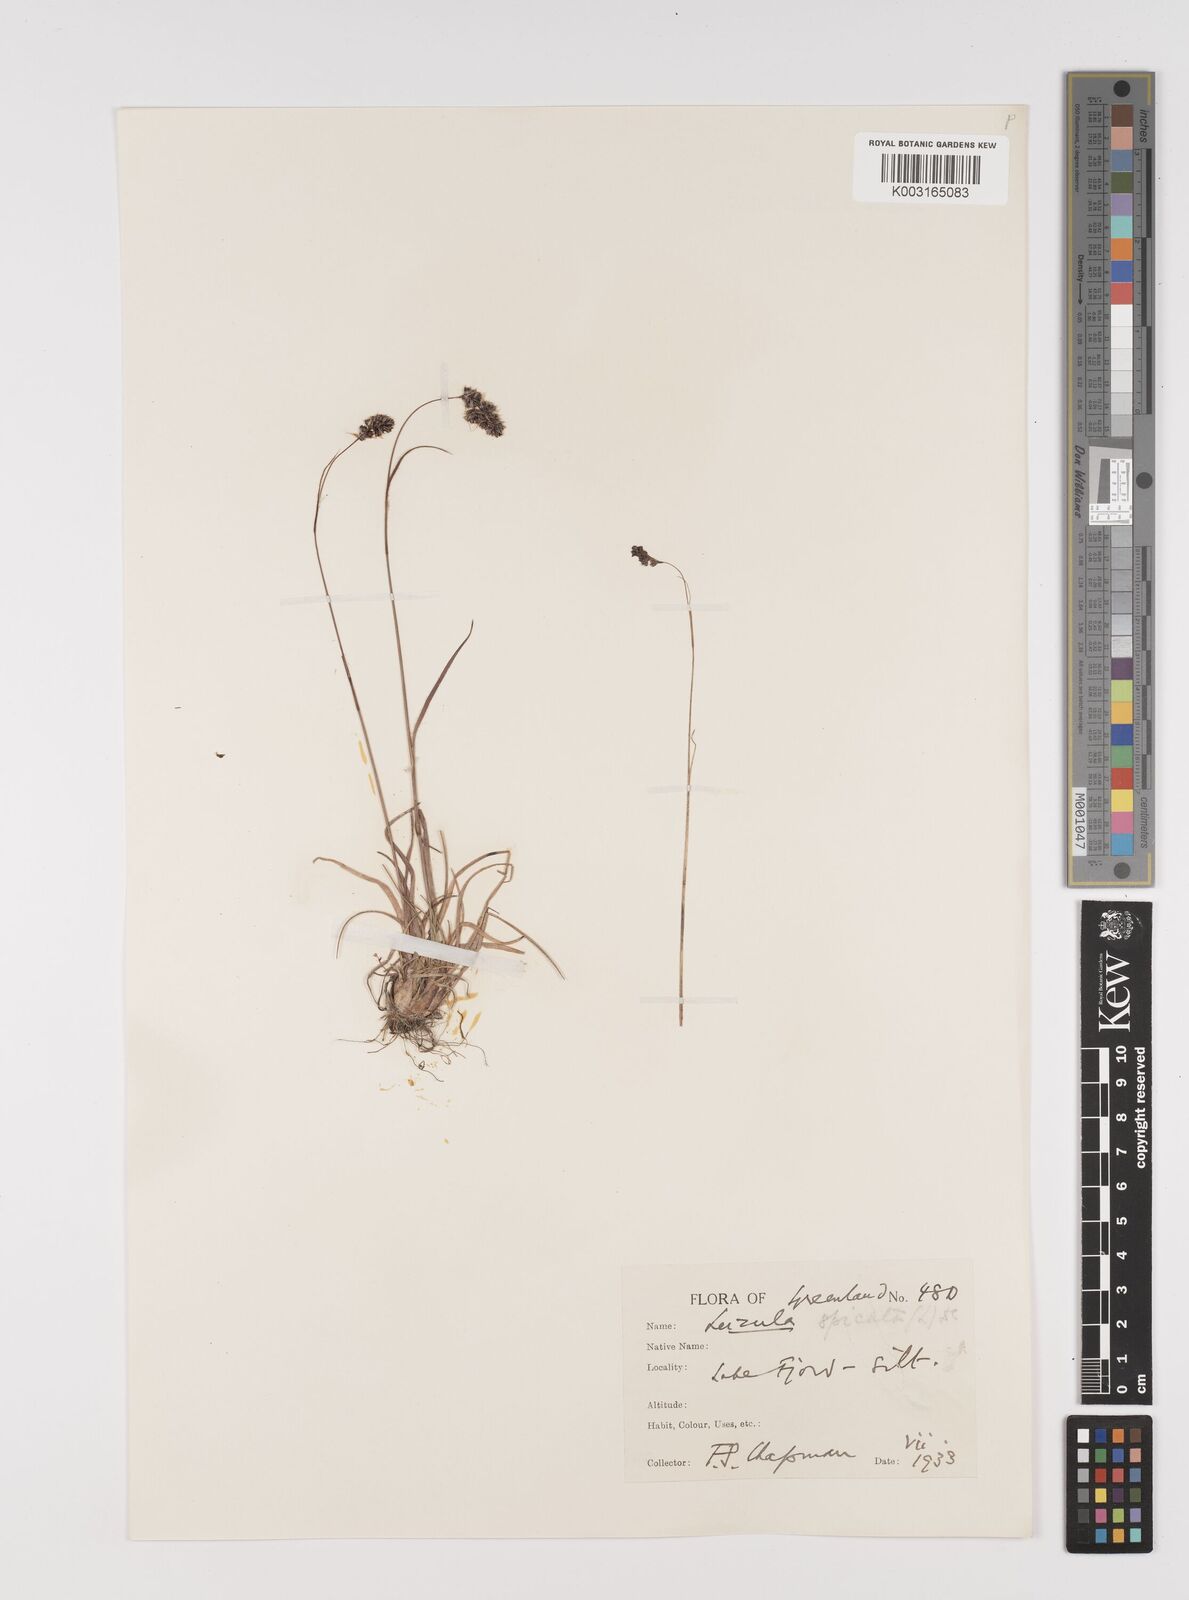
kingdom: Plantae
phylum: Tracheophyta
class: Liliopsida
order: Poales
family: Juncaceae
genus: Luzula
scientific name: Luzula spicata
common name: Spiked wood-rush
